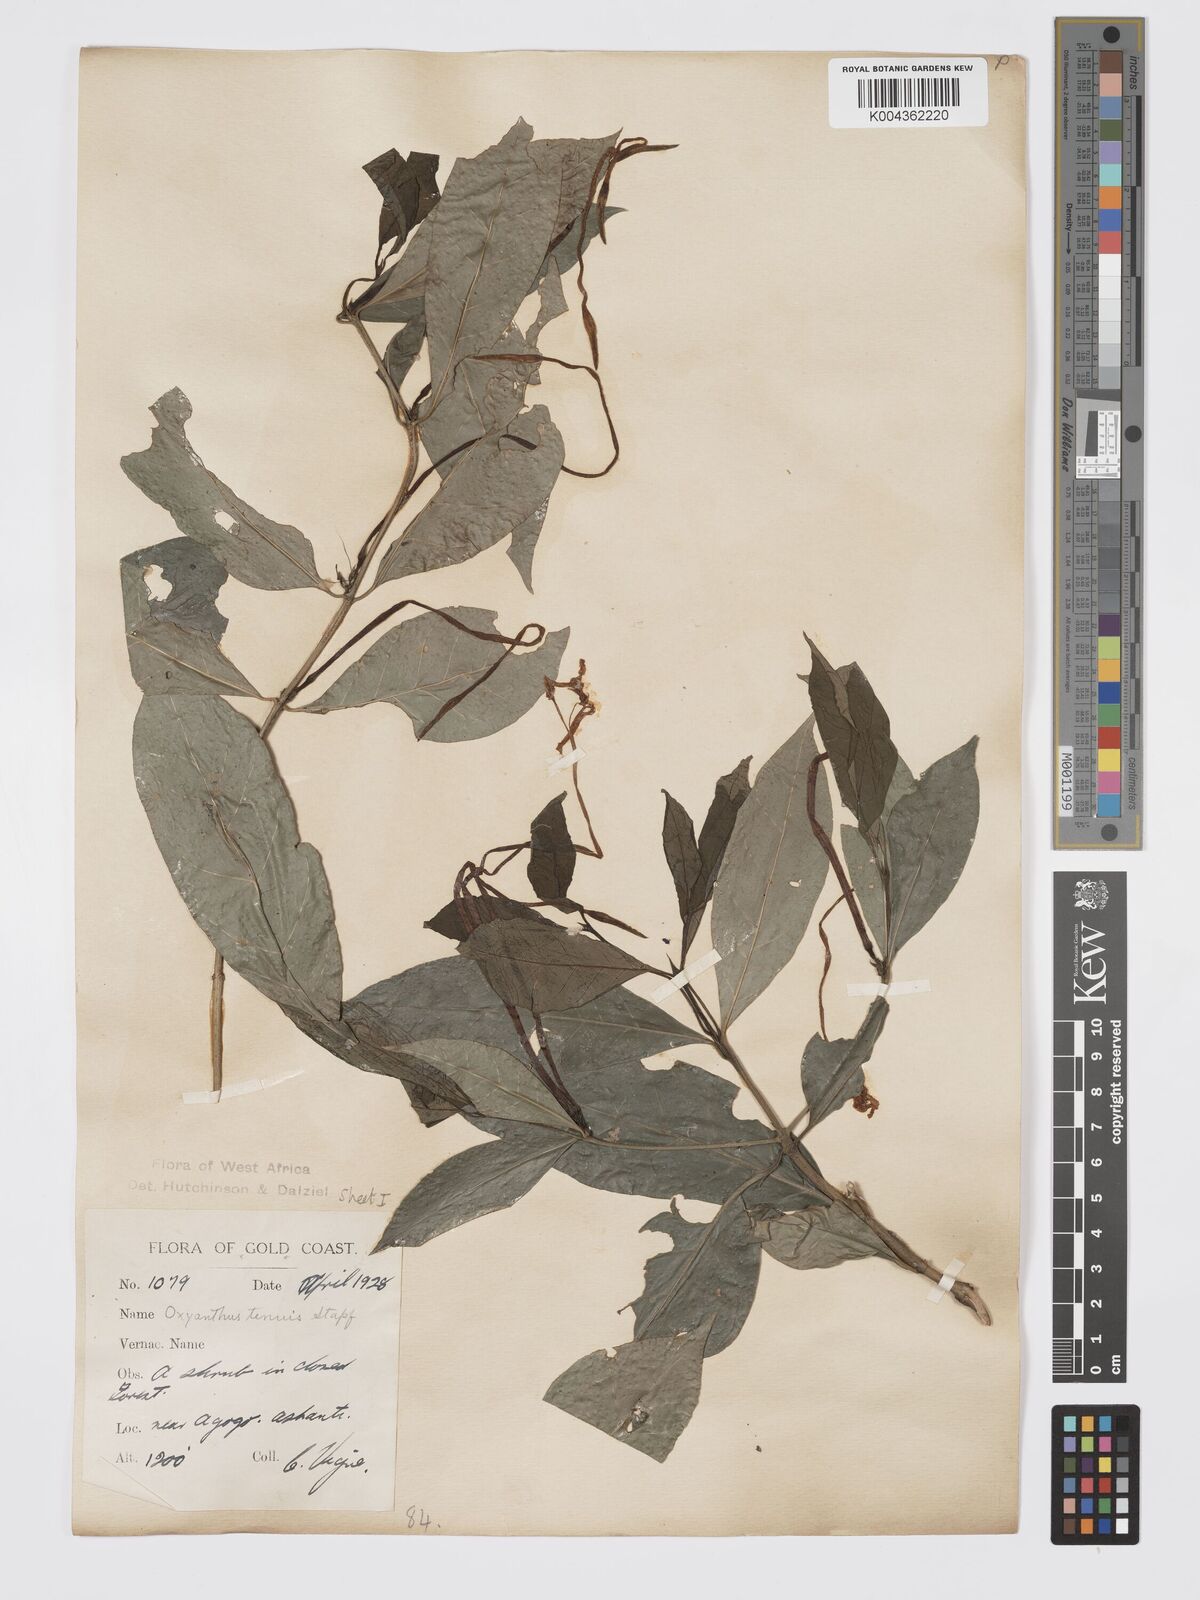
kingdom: Plantae
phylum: Tracheophyta
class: Magnoliopsida
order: Gentianales
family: Rubiaceae
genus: Oxyanthus
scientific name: Oxyanthus subpunctatus
